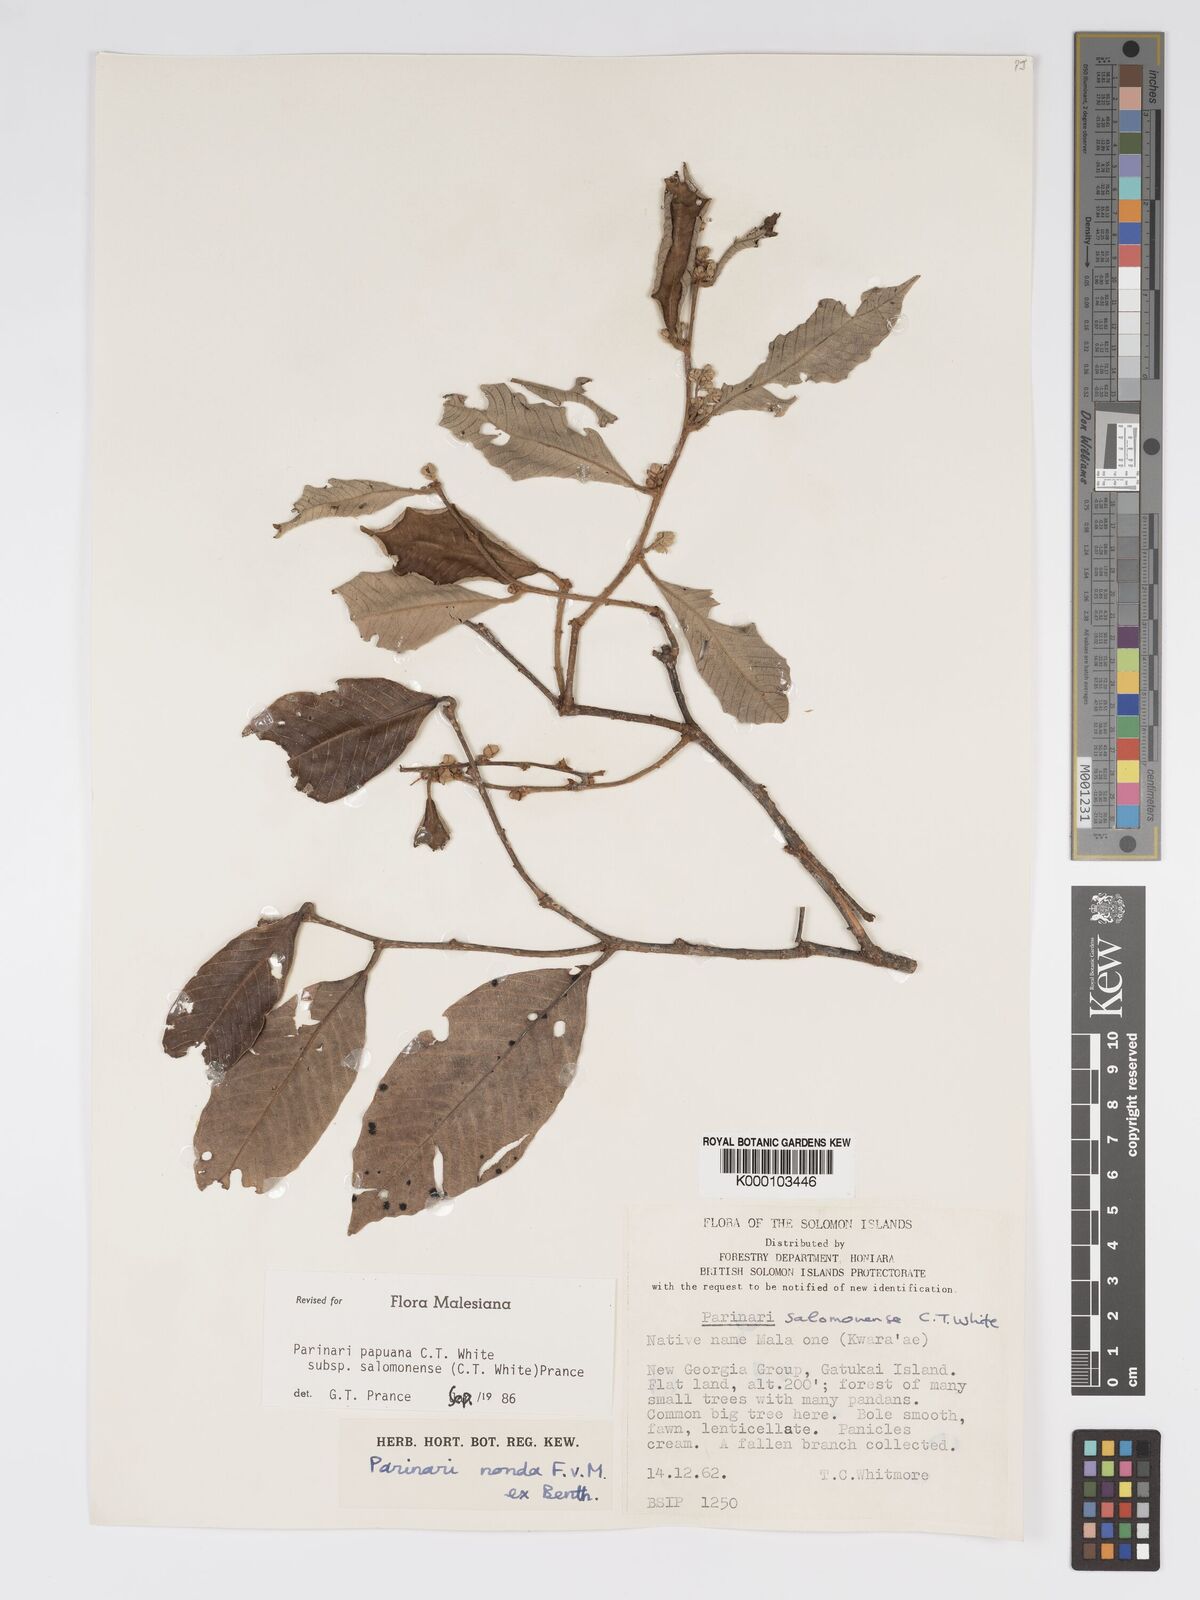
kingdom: Plantae
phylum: Tracheophyta
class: Magnoliopsida
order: Malpighiales
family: Chrysobalanaceae
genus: Parinari
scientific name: Parinari papuana
